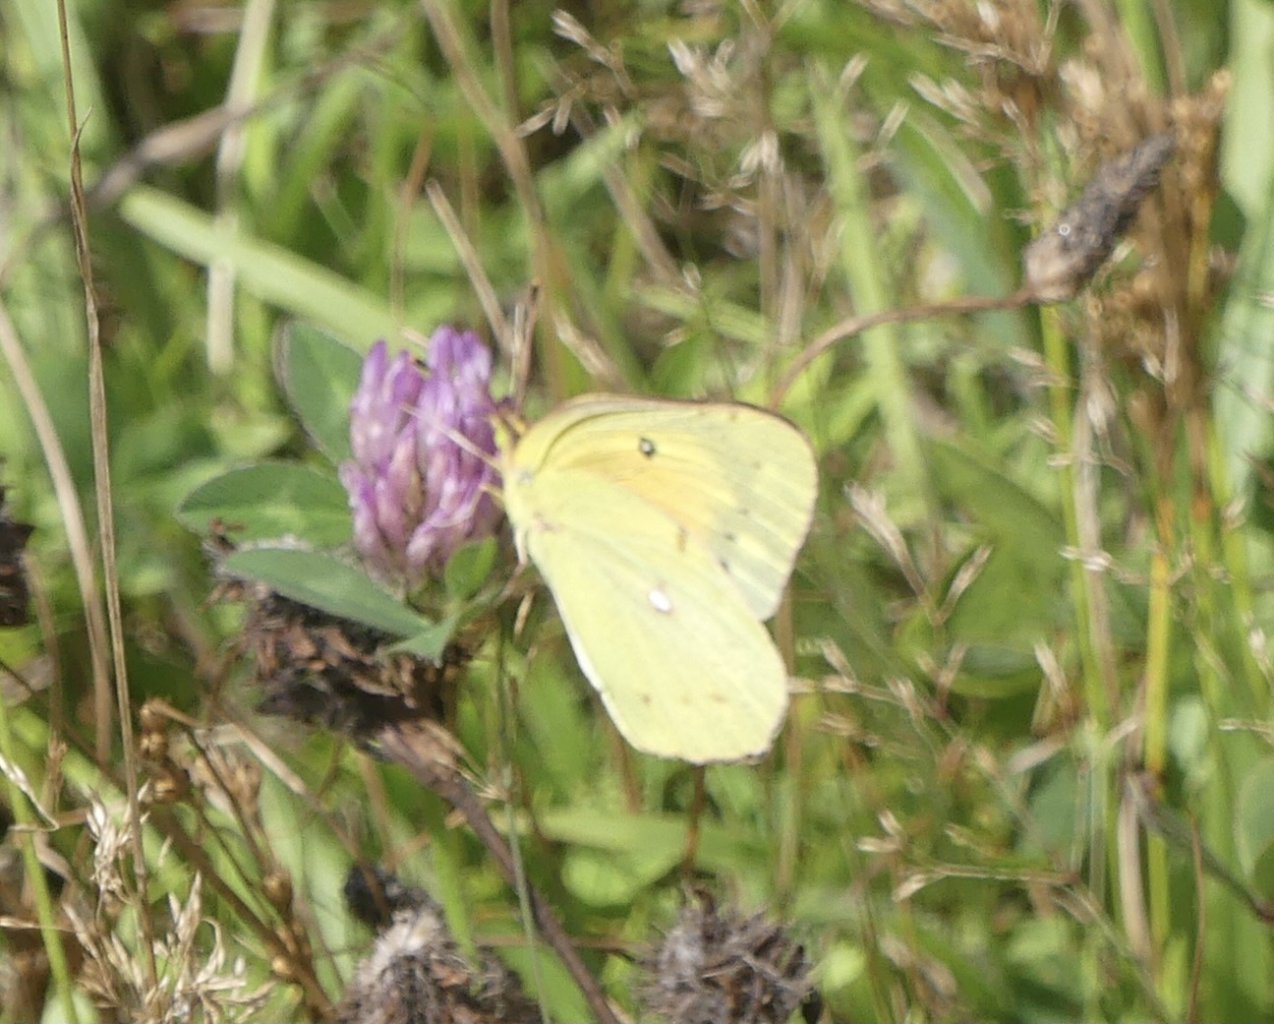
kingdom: Animalia
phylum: Arthropoda
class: Insecta
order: Lepidoptera
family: Pieridae
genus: Colias
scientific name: Colias eurytheme
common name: Orange Sulphur
